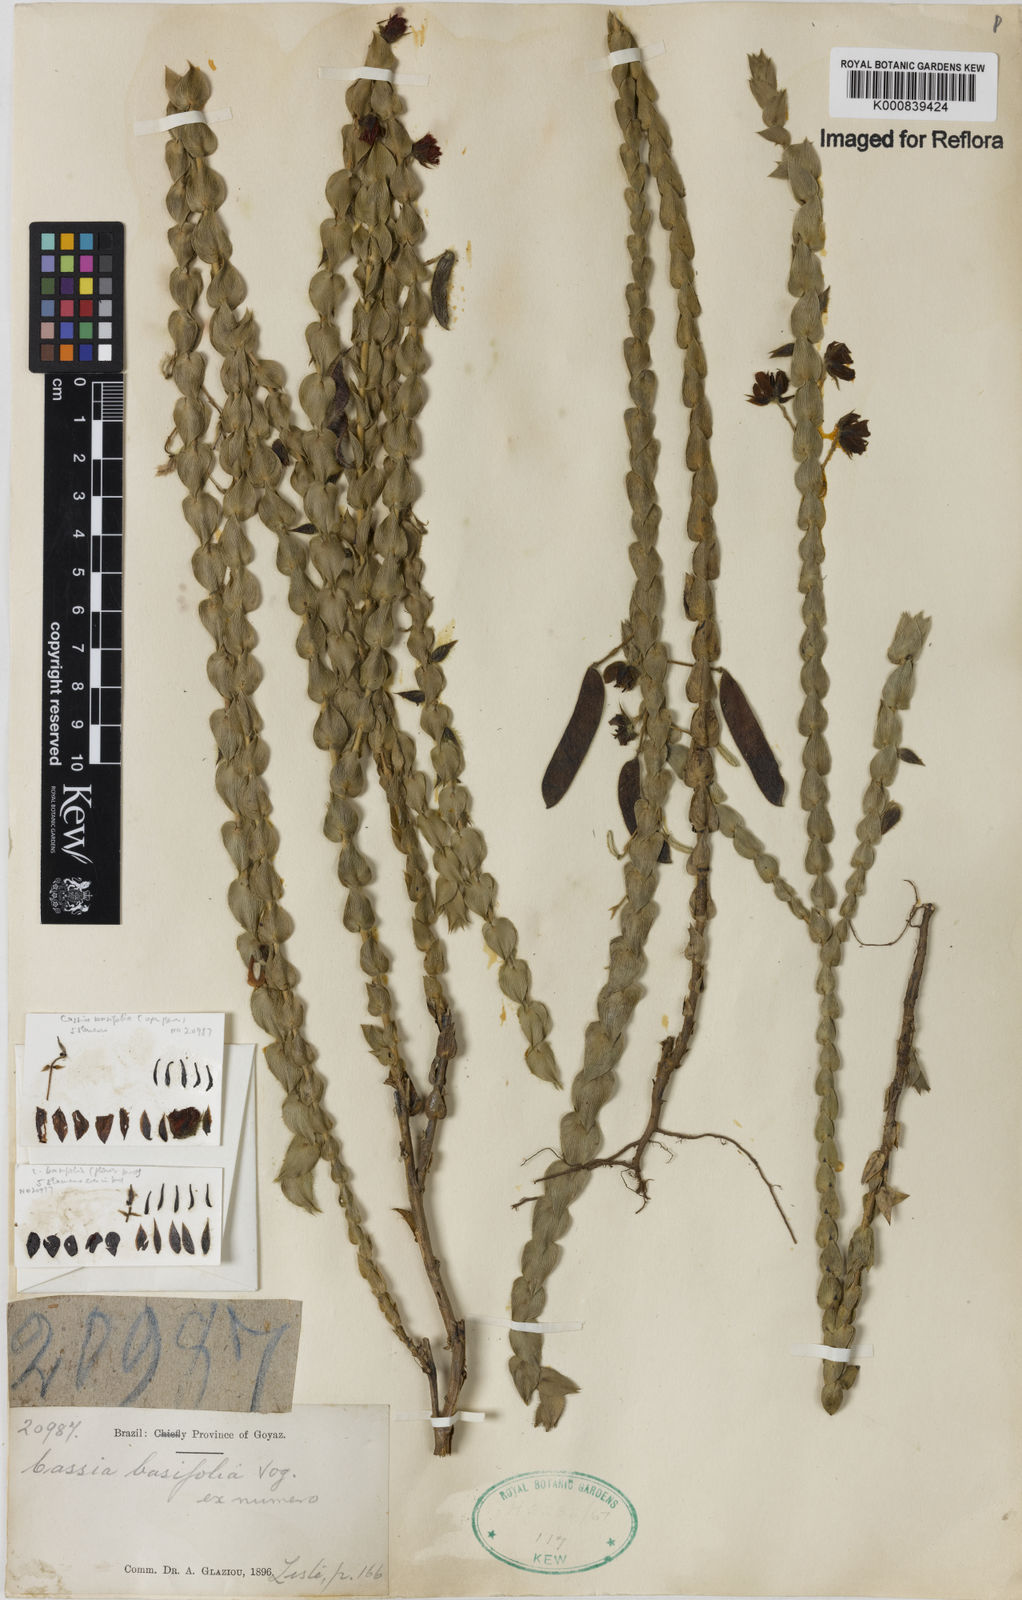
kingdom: Plantae
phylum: Tracheophyta
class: Magnoliopsida
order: Fabales
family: Fabaceae
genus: Chamaecrista
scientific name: Chamaecrista basifolia
